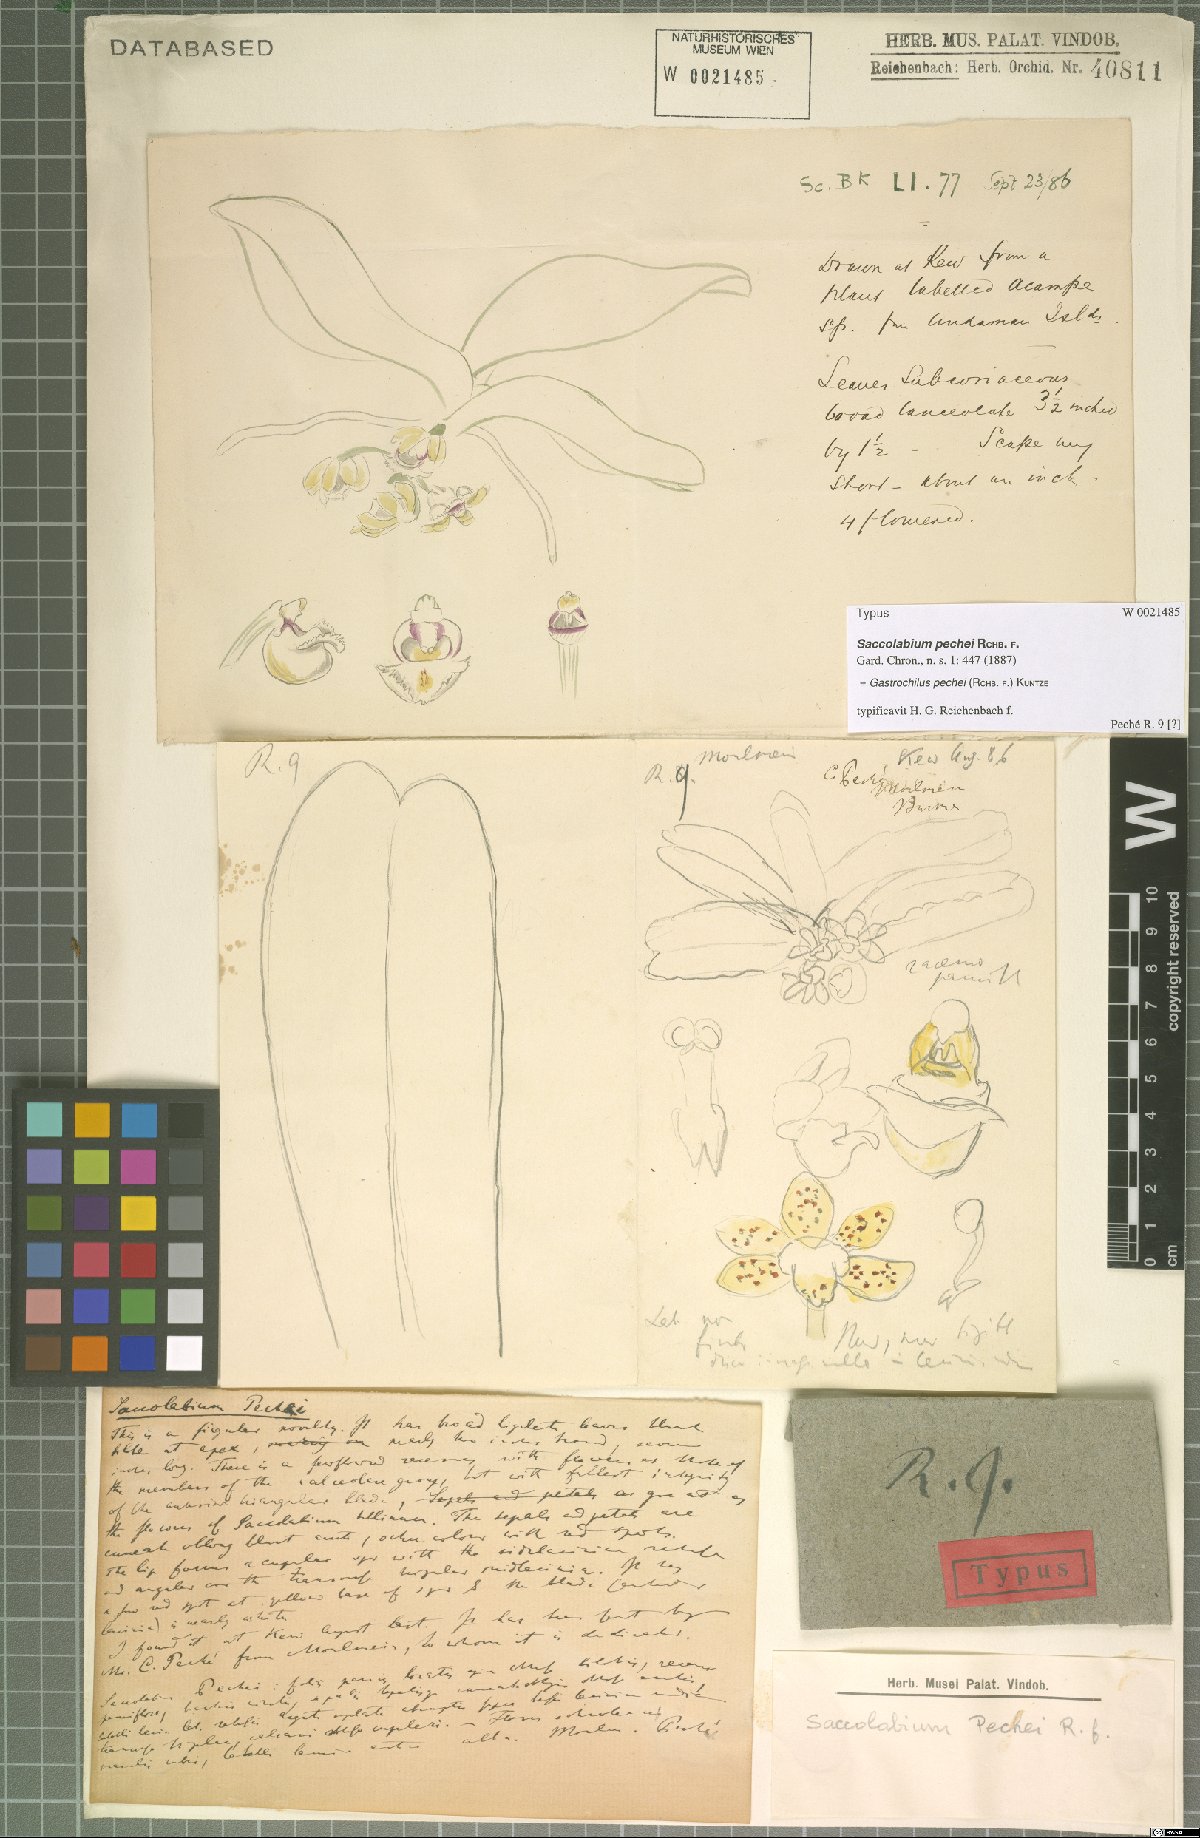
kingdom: Plantae
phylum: Tracheophyta
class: Liliopsida
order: Asparagales
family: Orchidaceae
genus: Gastrochilus
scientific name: Gastrochilus pechei
